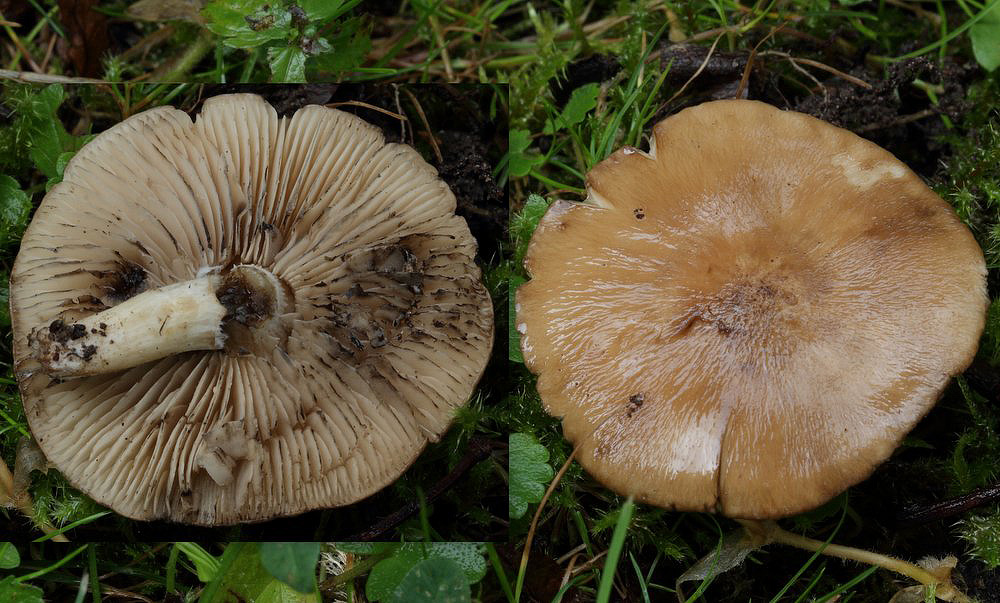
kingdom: Fungi
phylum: Basidiomycota
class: Agaricomycetes
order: Agaricales
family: Lyophyllaceae
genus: Lyophyllum
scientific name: Lyophyllum paelochroum
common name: blånende gråblad
